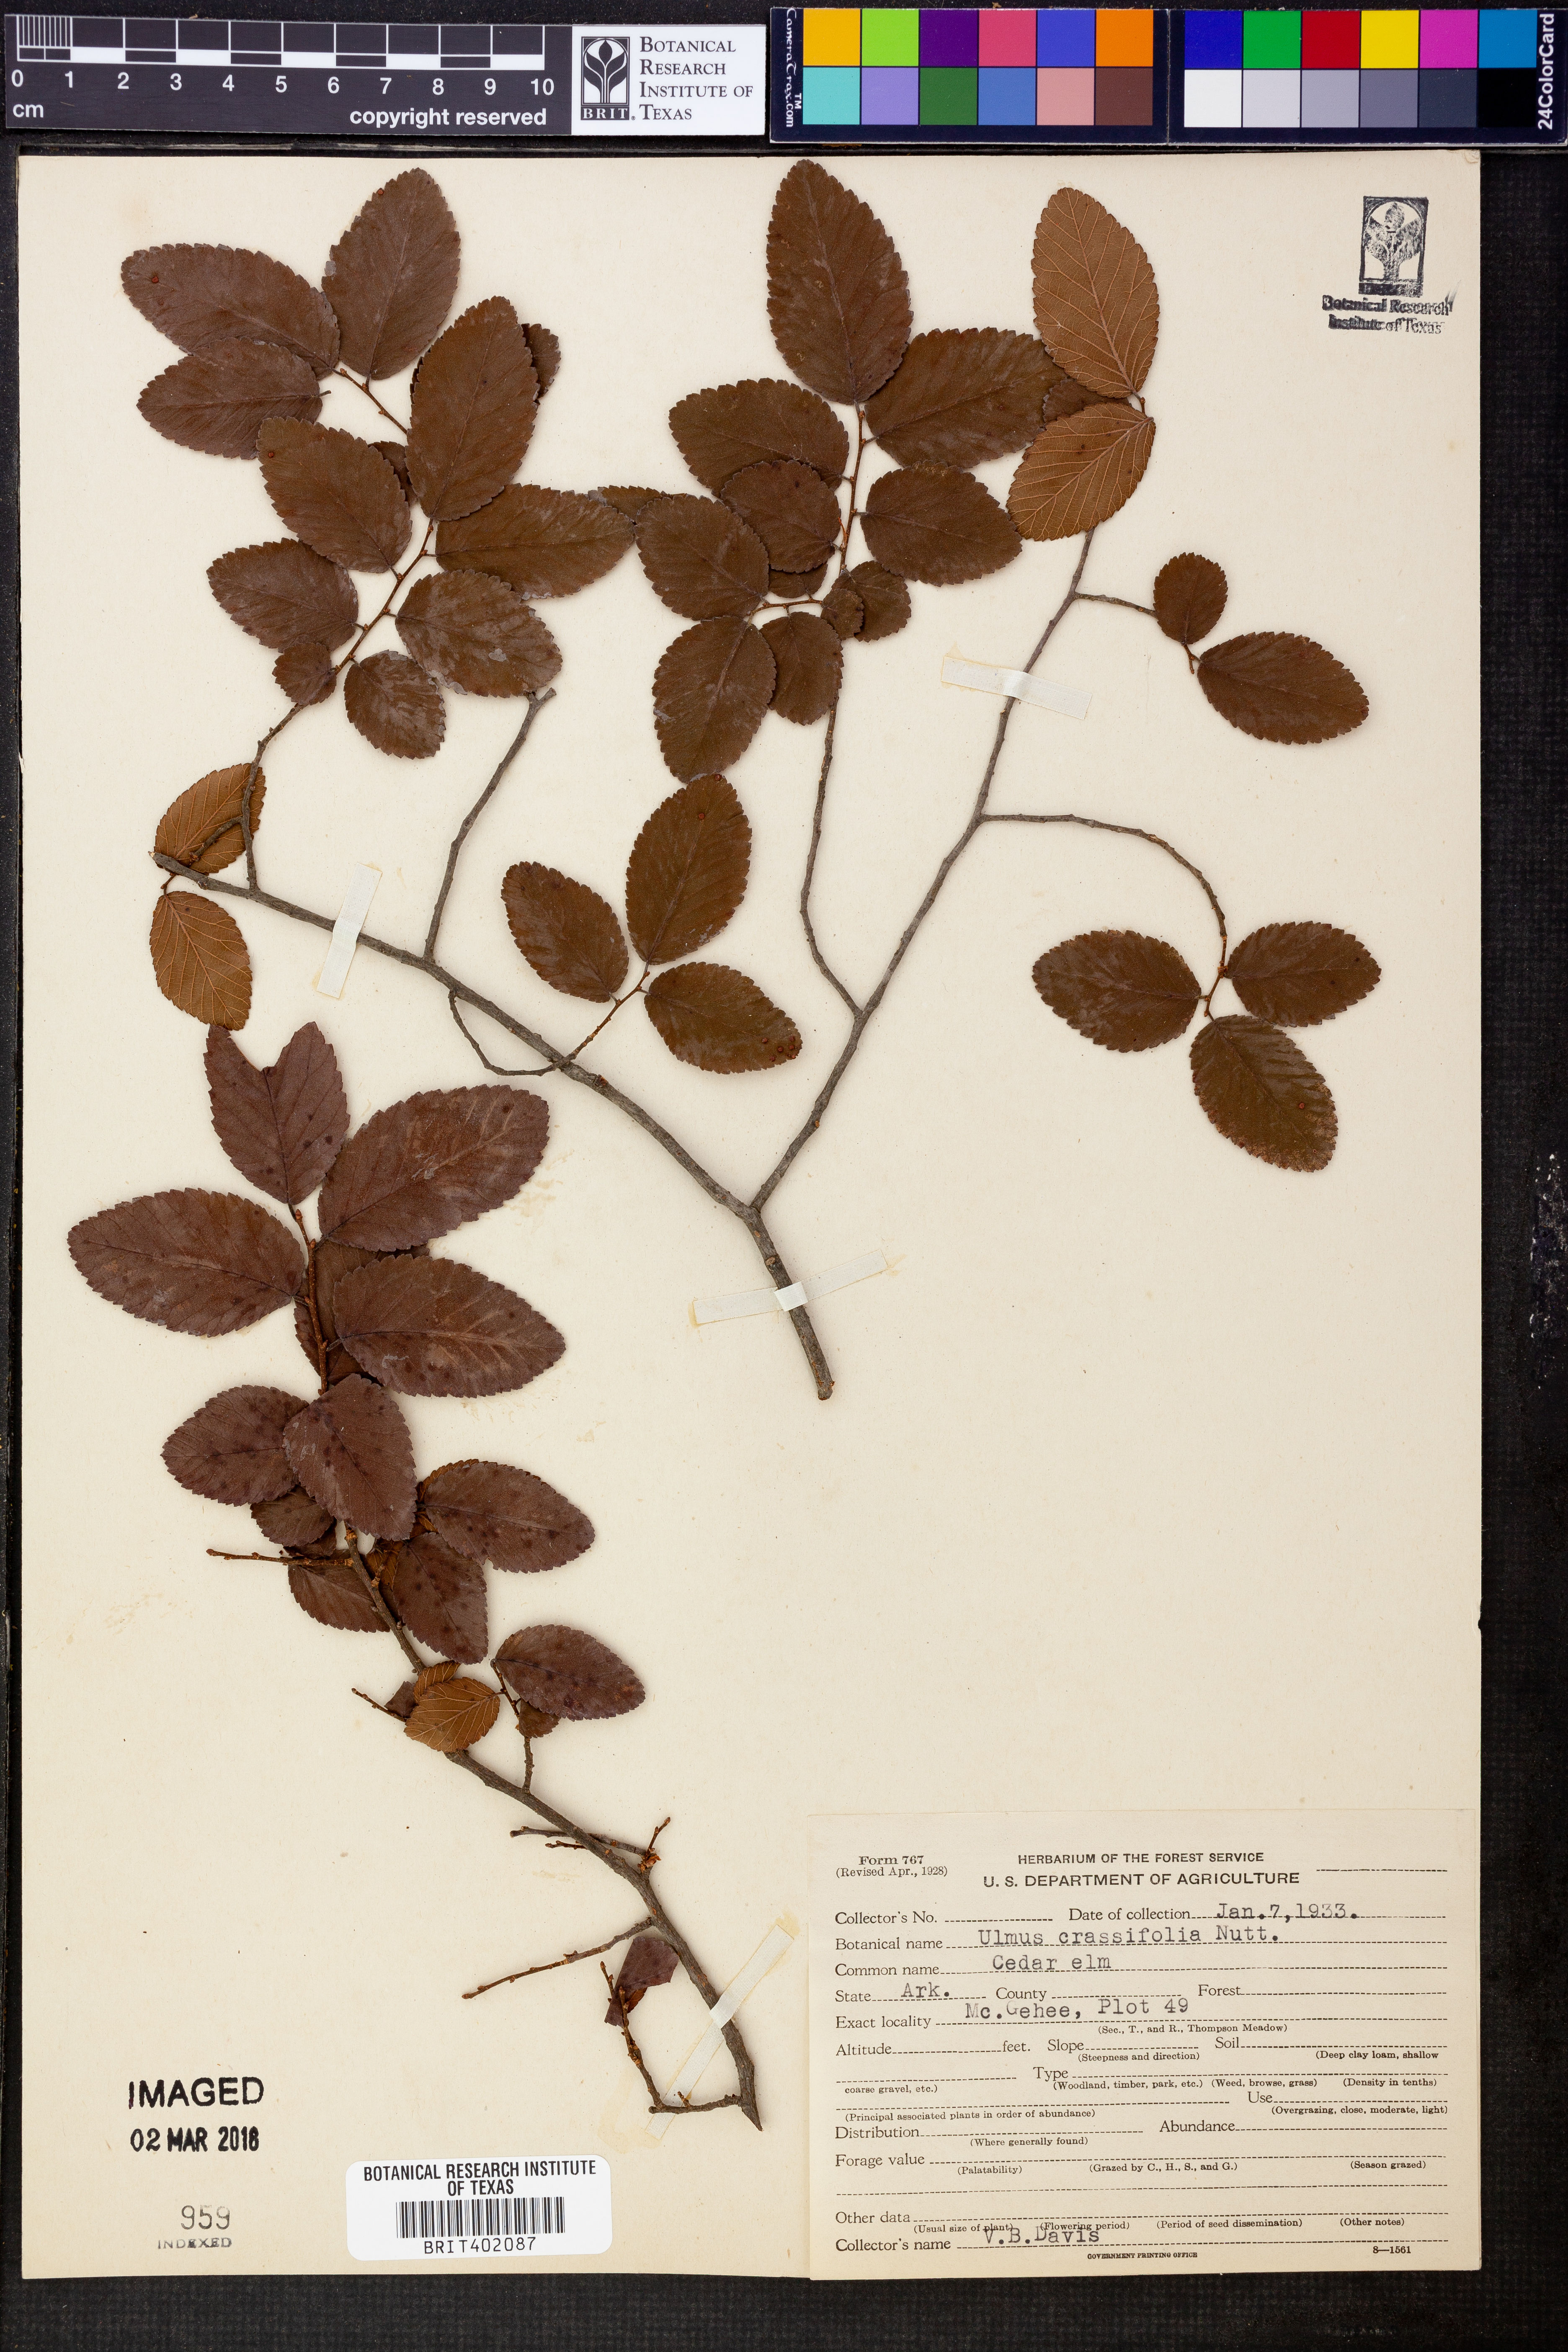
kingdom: Plantae
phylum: Tracheophyta
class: Magnoliopsida
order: Rosales
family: Ulmaceae
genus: Ulmus
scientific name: Ulmus crassifolia
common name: Basket elm
